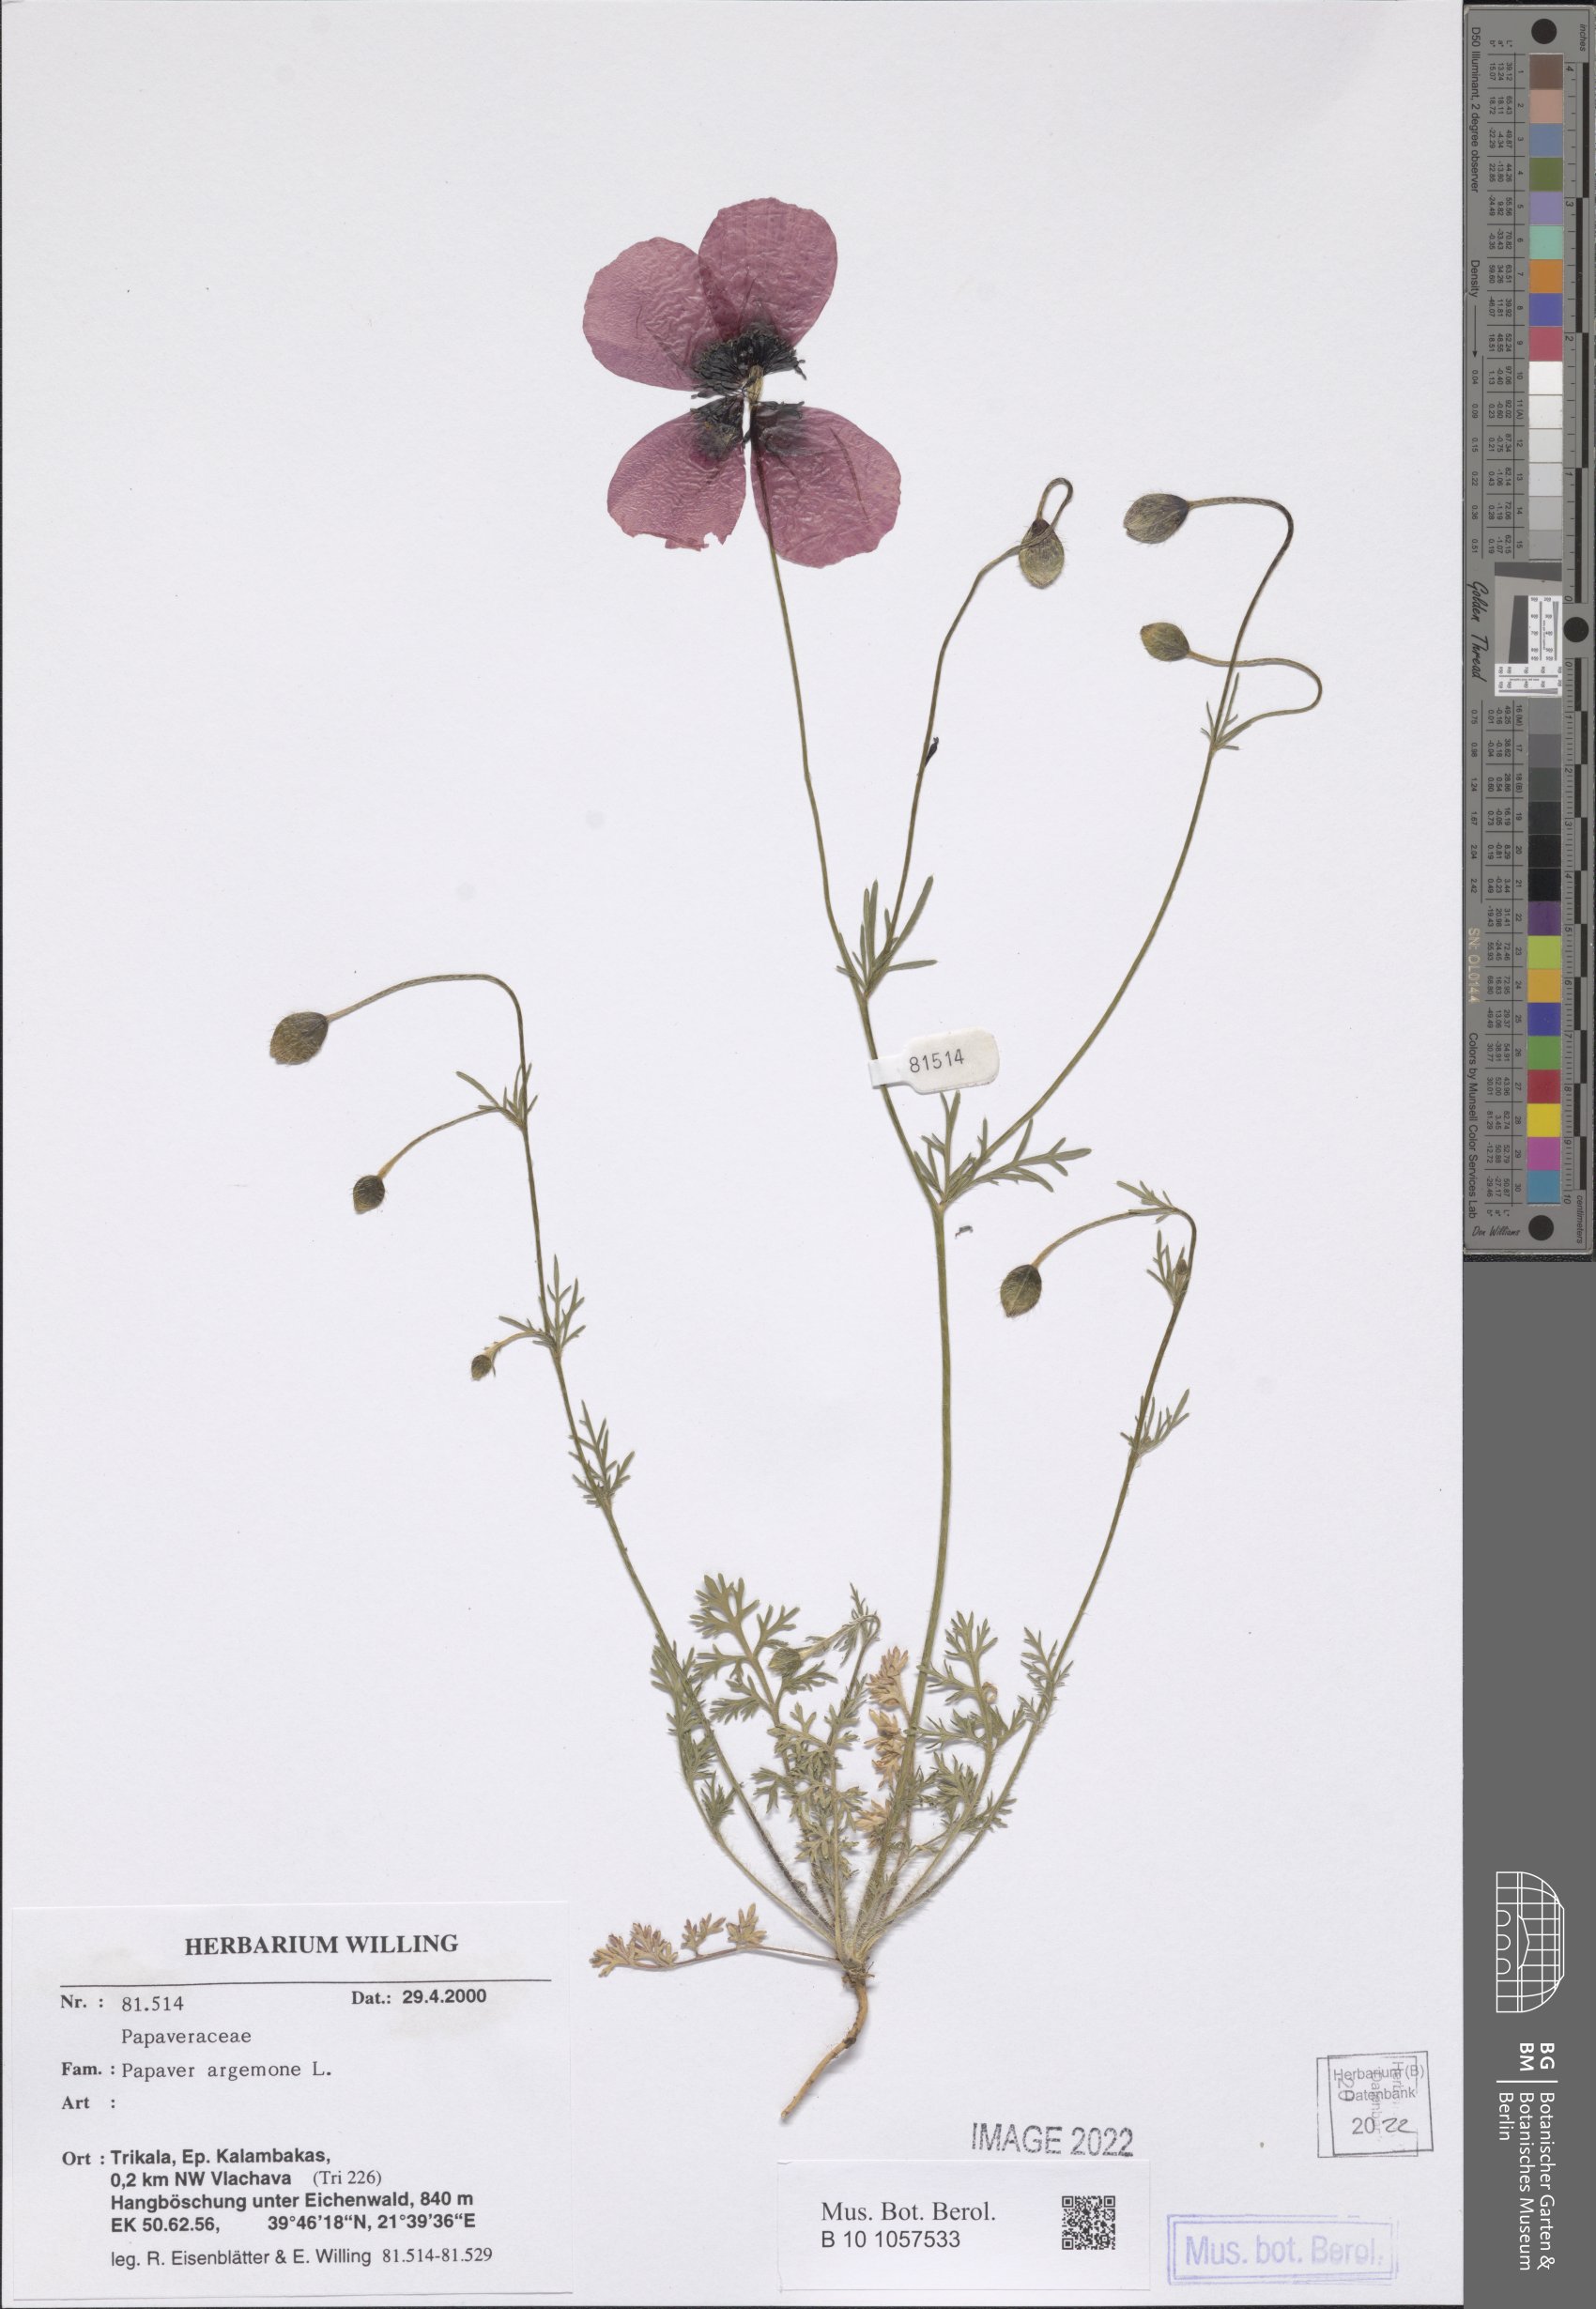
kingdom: Plantae
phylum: Tracheophyta
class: Magnoliopsida
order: Ranunculales
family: Papaveraceae
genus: Roemeria
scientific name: Roemeria argemone
